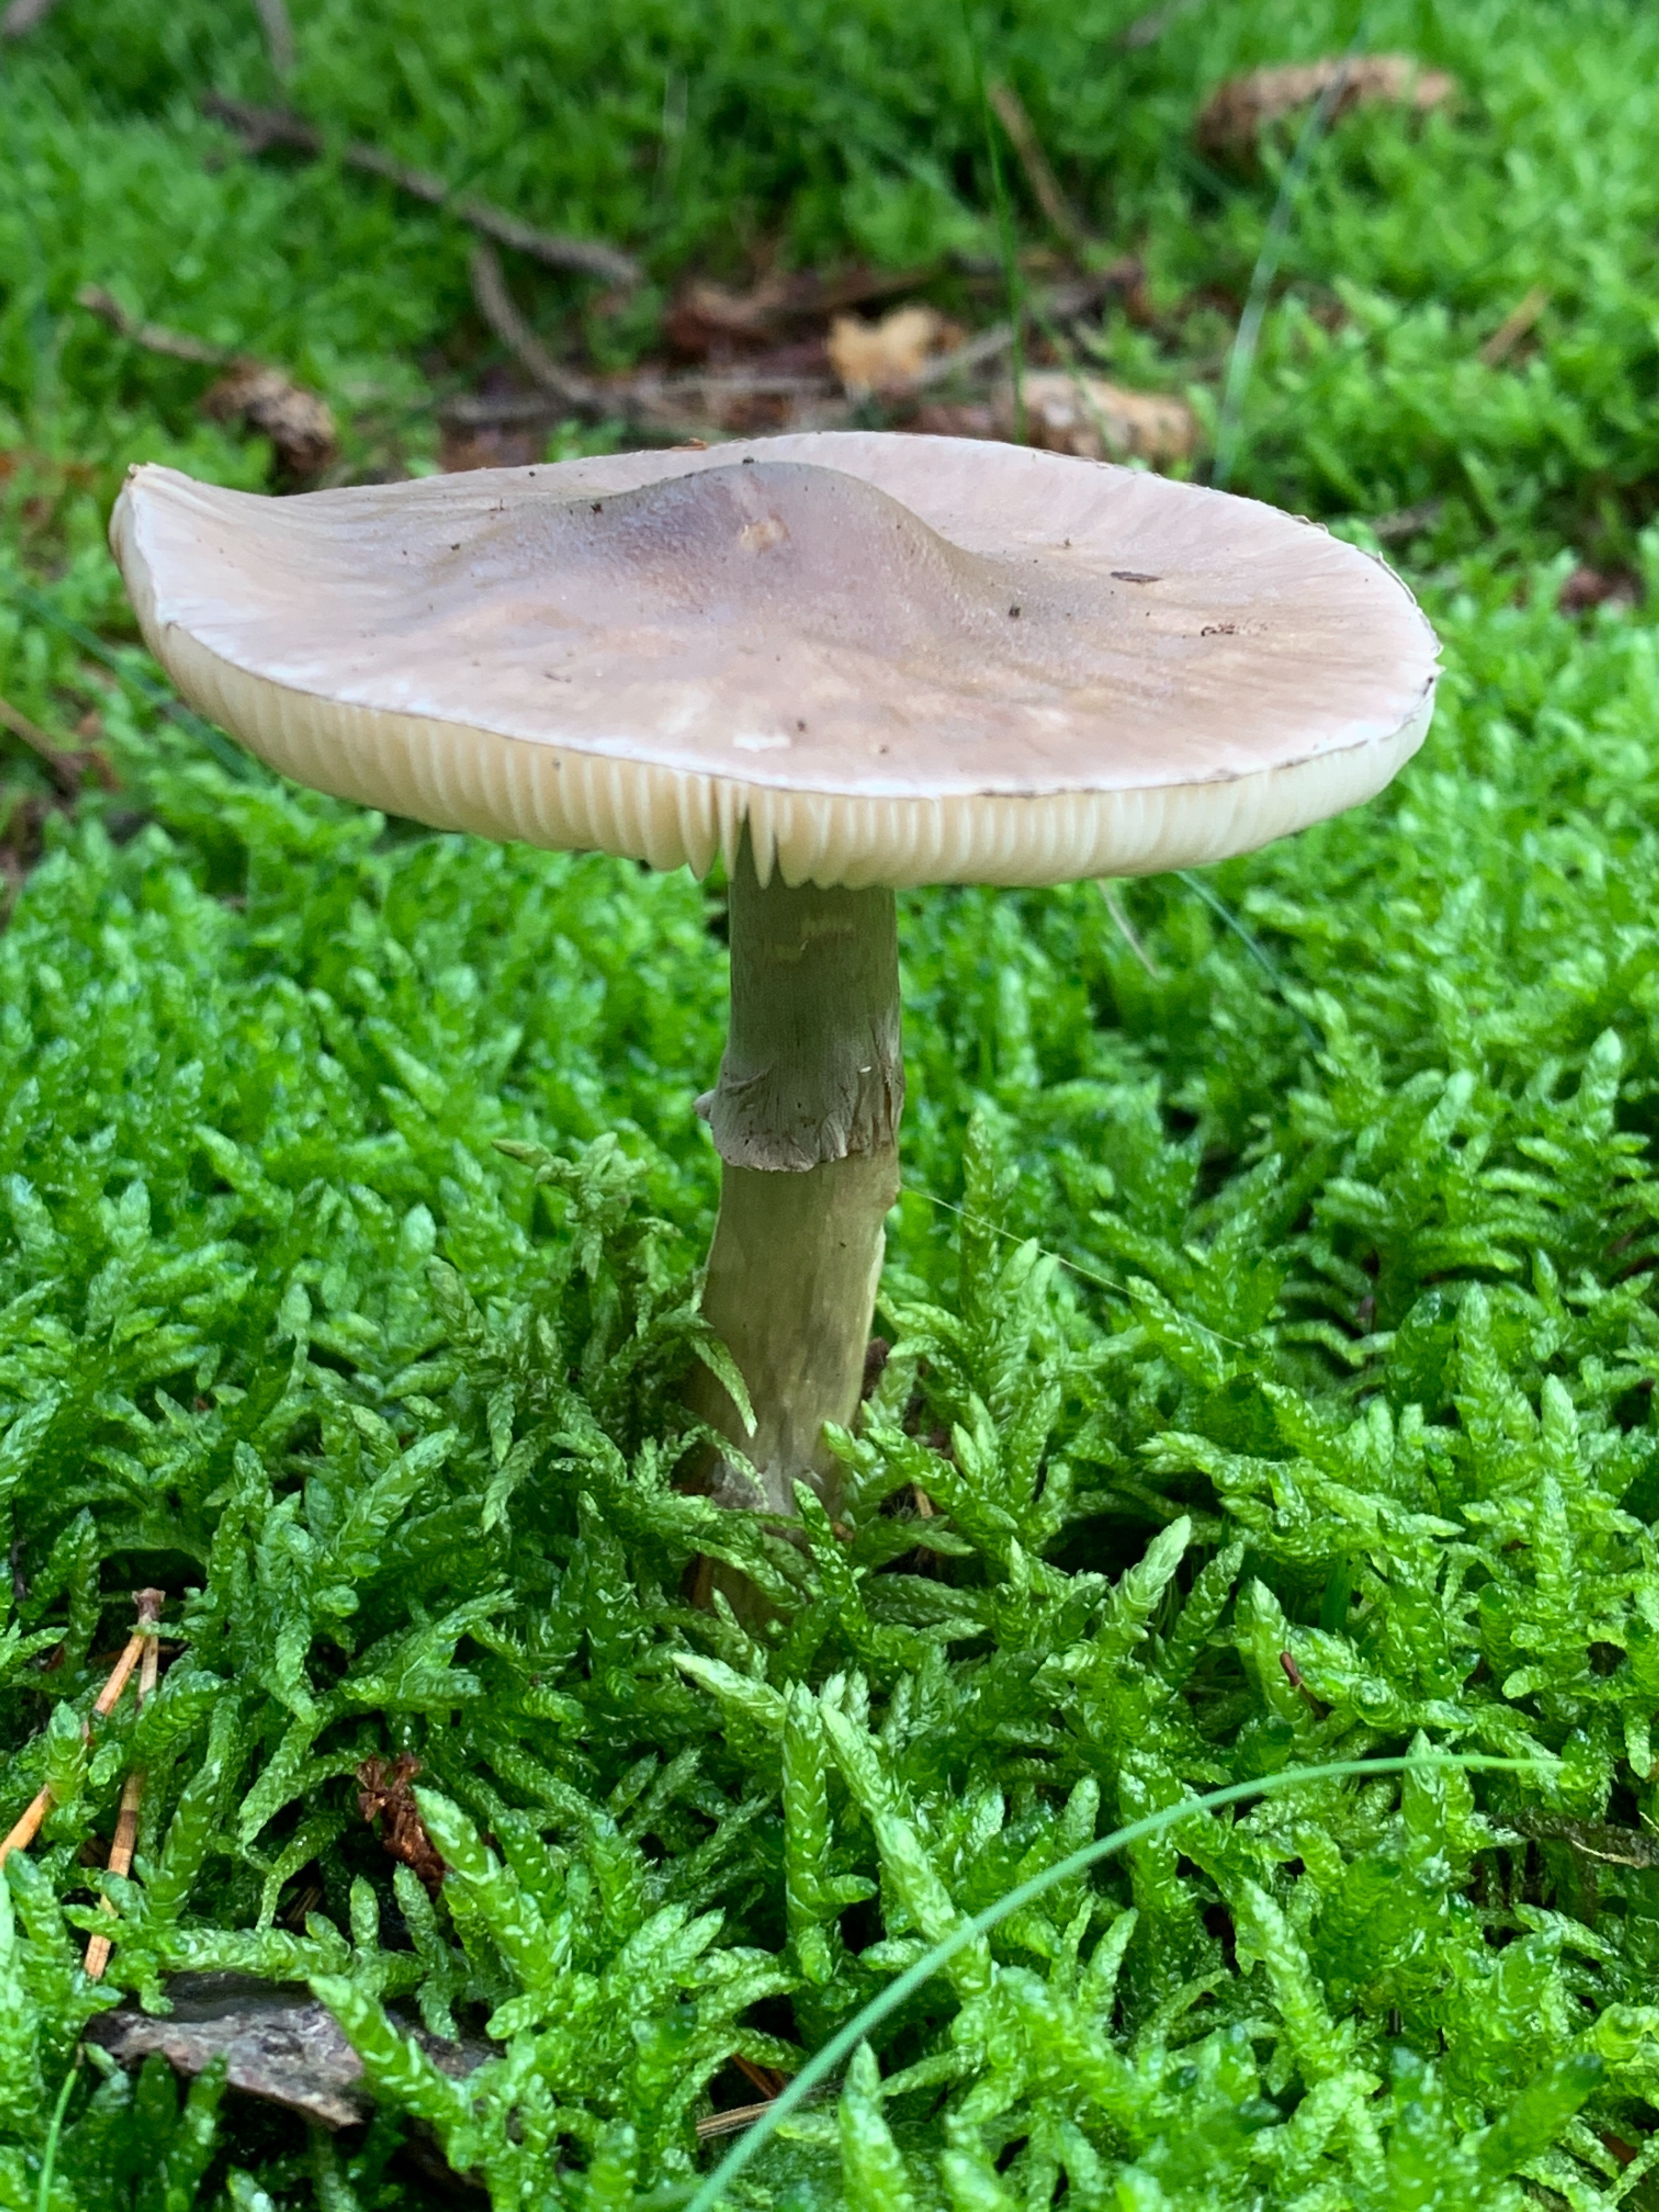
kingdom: Fungi
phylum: Basidiomycota
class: Agaricomycetes
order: Agaricales
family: Amanitaceae
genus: Amanita
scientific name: Amanita porphyria
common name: porfyr-fluesvamp
